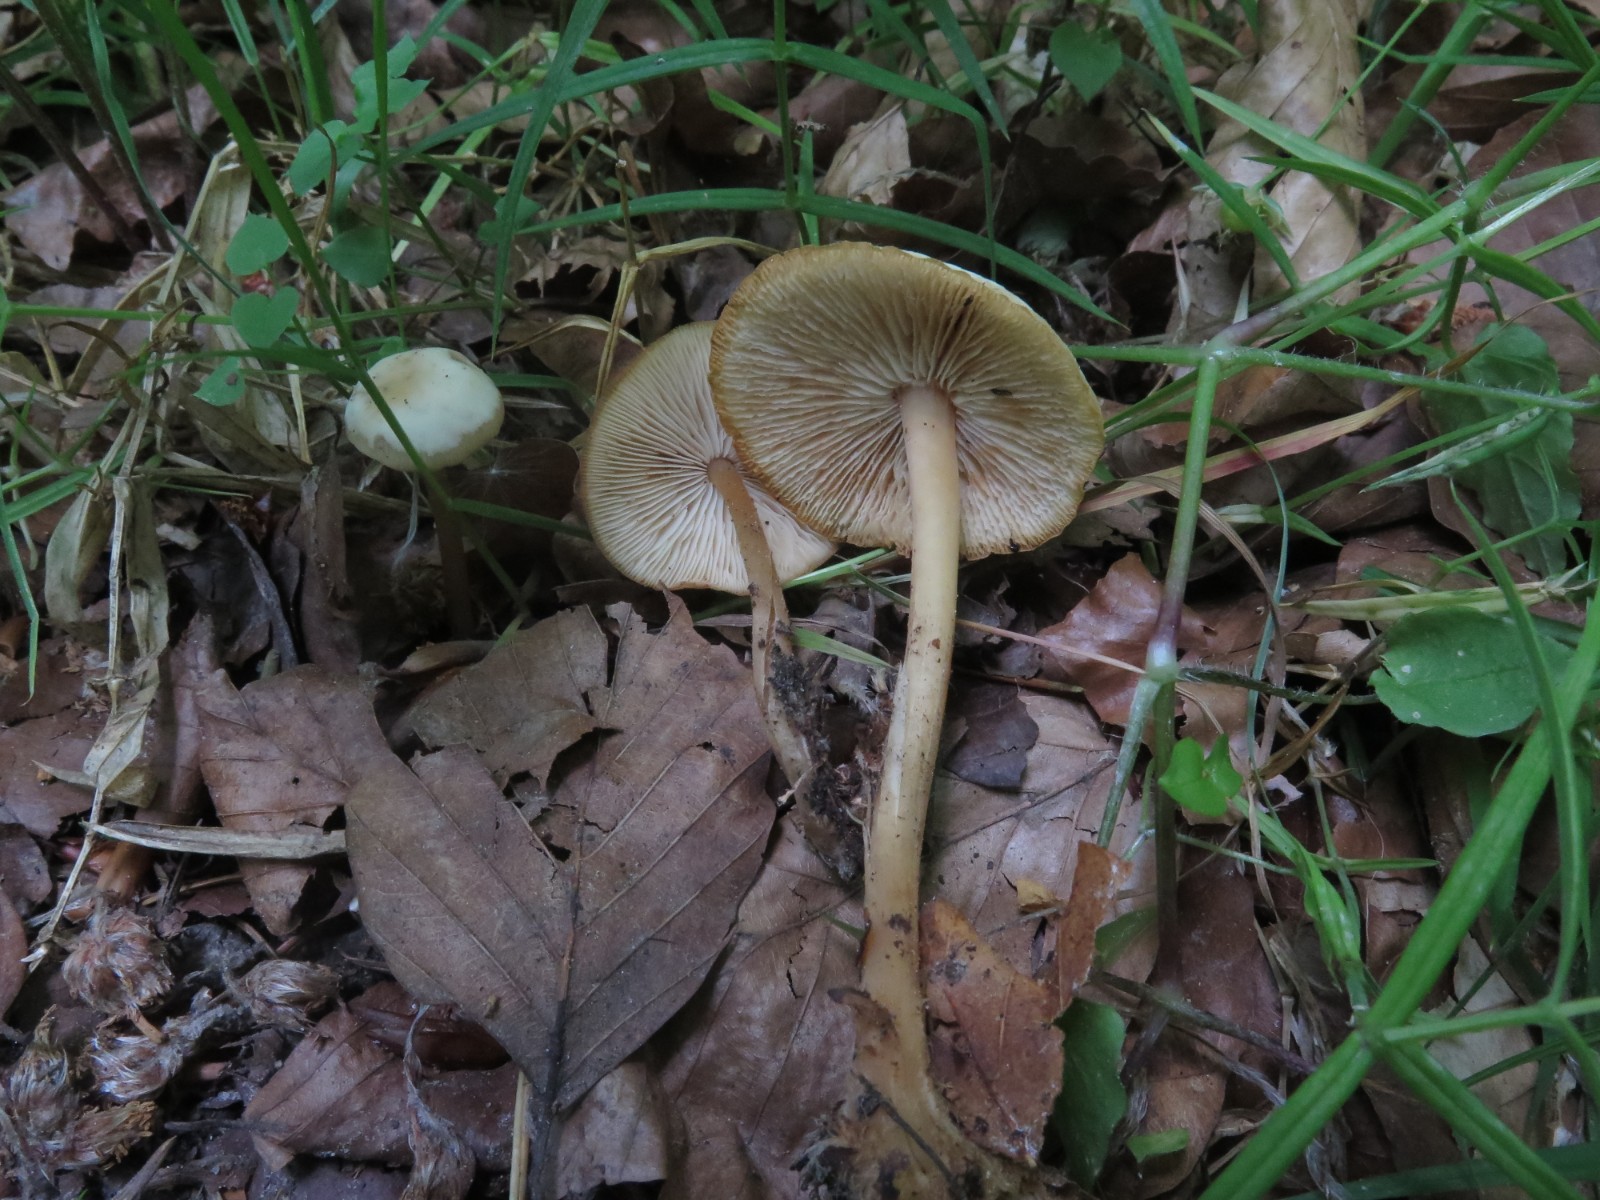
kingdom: Fungi
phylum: Basidiomycota
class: Agaricomycetes
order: Agaricales
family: Omphalotaceae
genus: Gymnopus
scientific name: Gymnopus aquosus
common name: bleg fladhat
